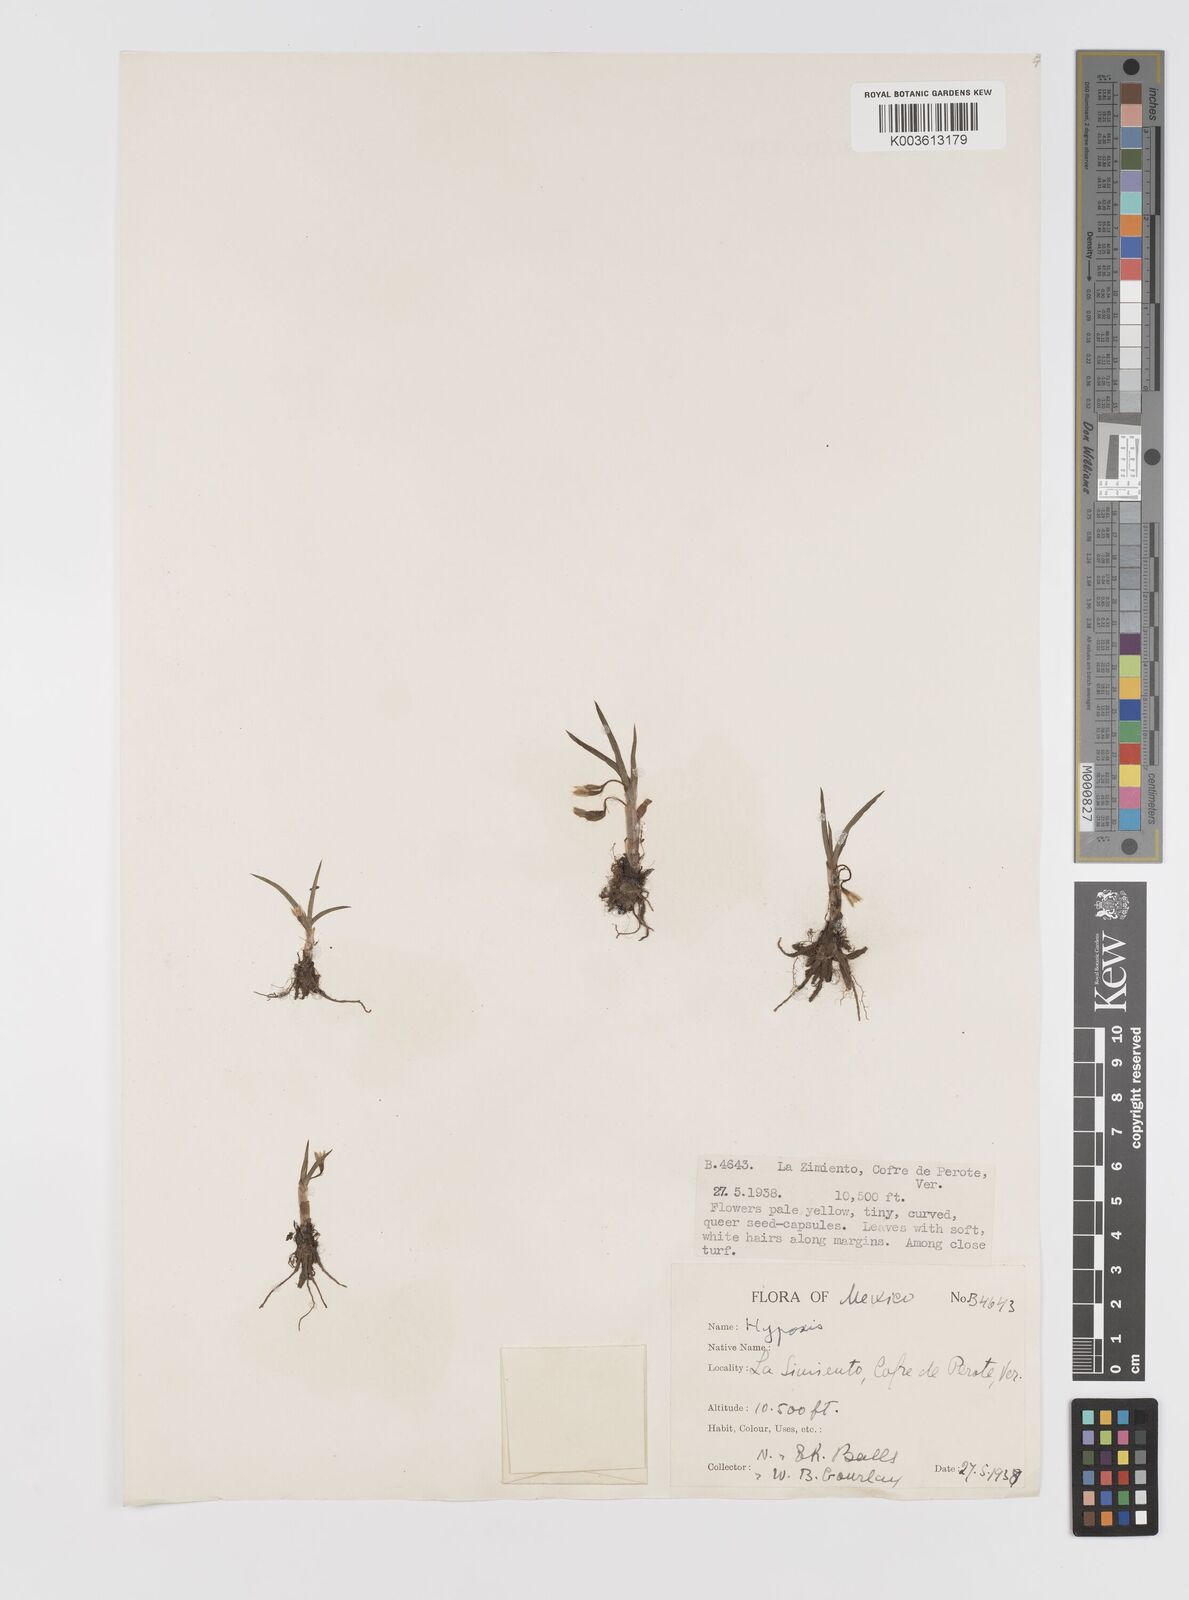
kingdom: Plantae
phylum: Tracheophyta
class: Liliopsida
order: Asparagales
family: Hypoxidaceae
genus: Hypoxis
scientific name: Hypoxis
